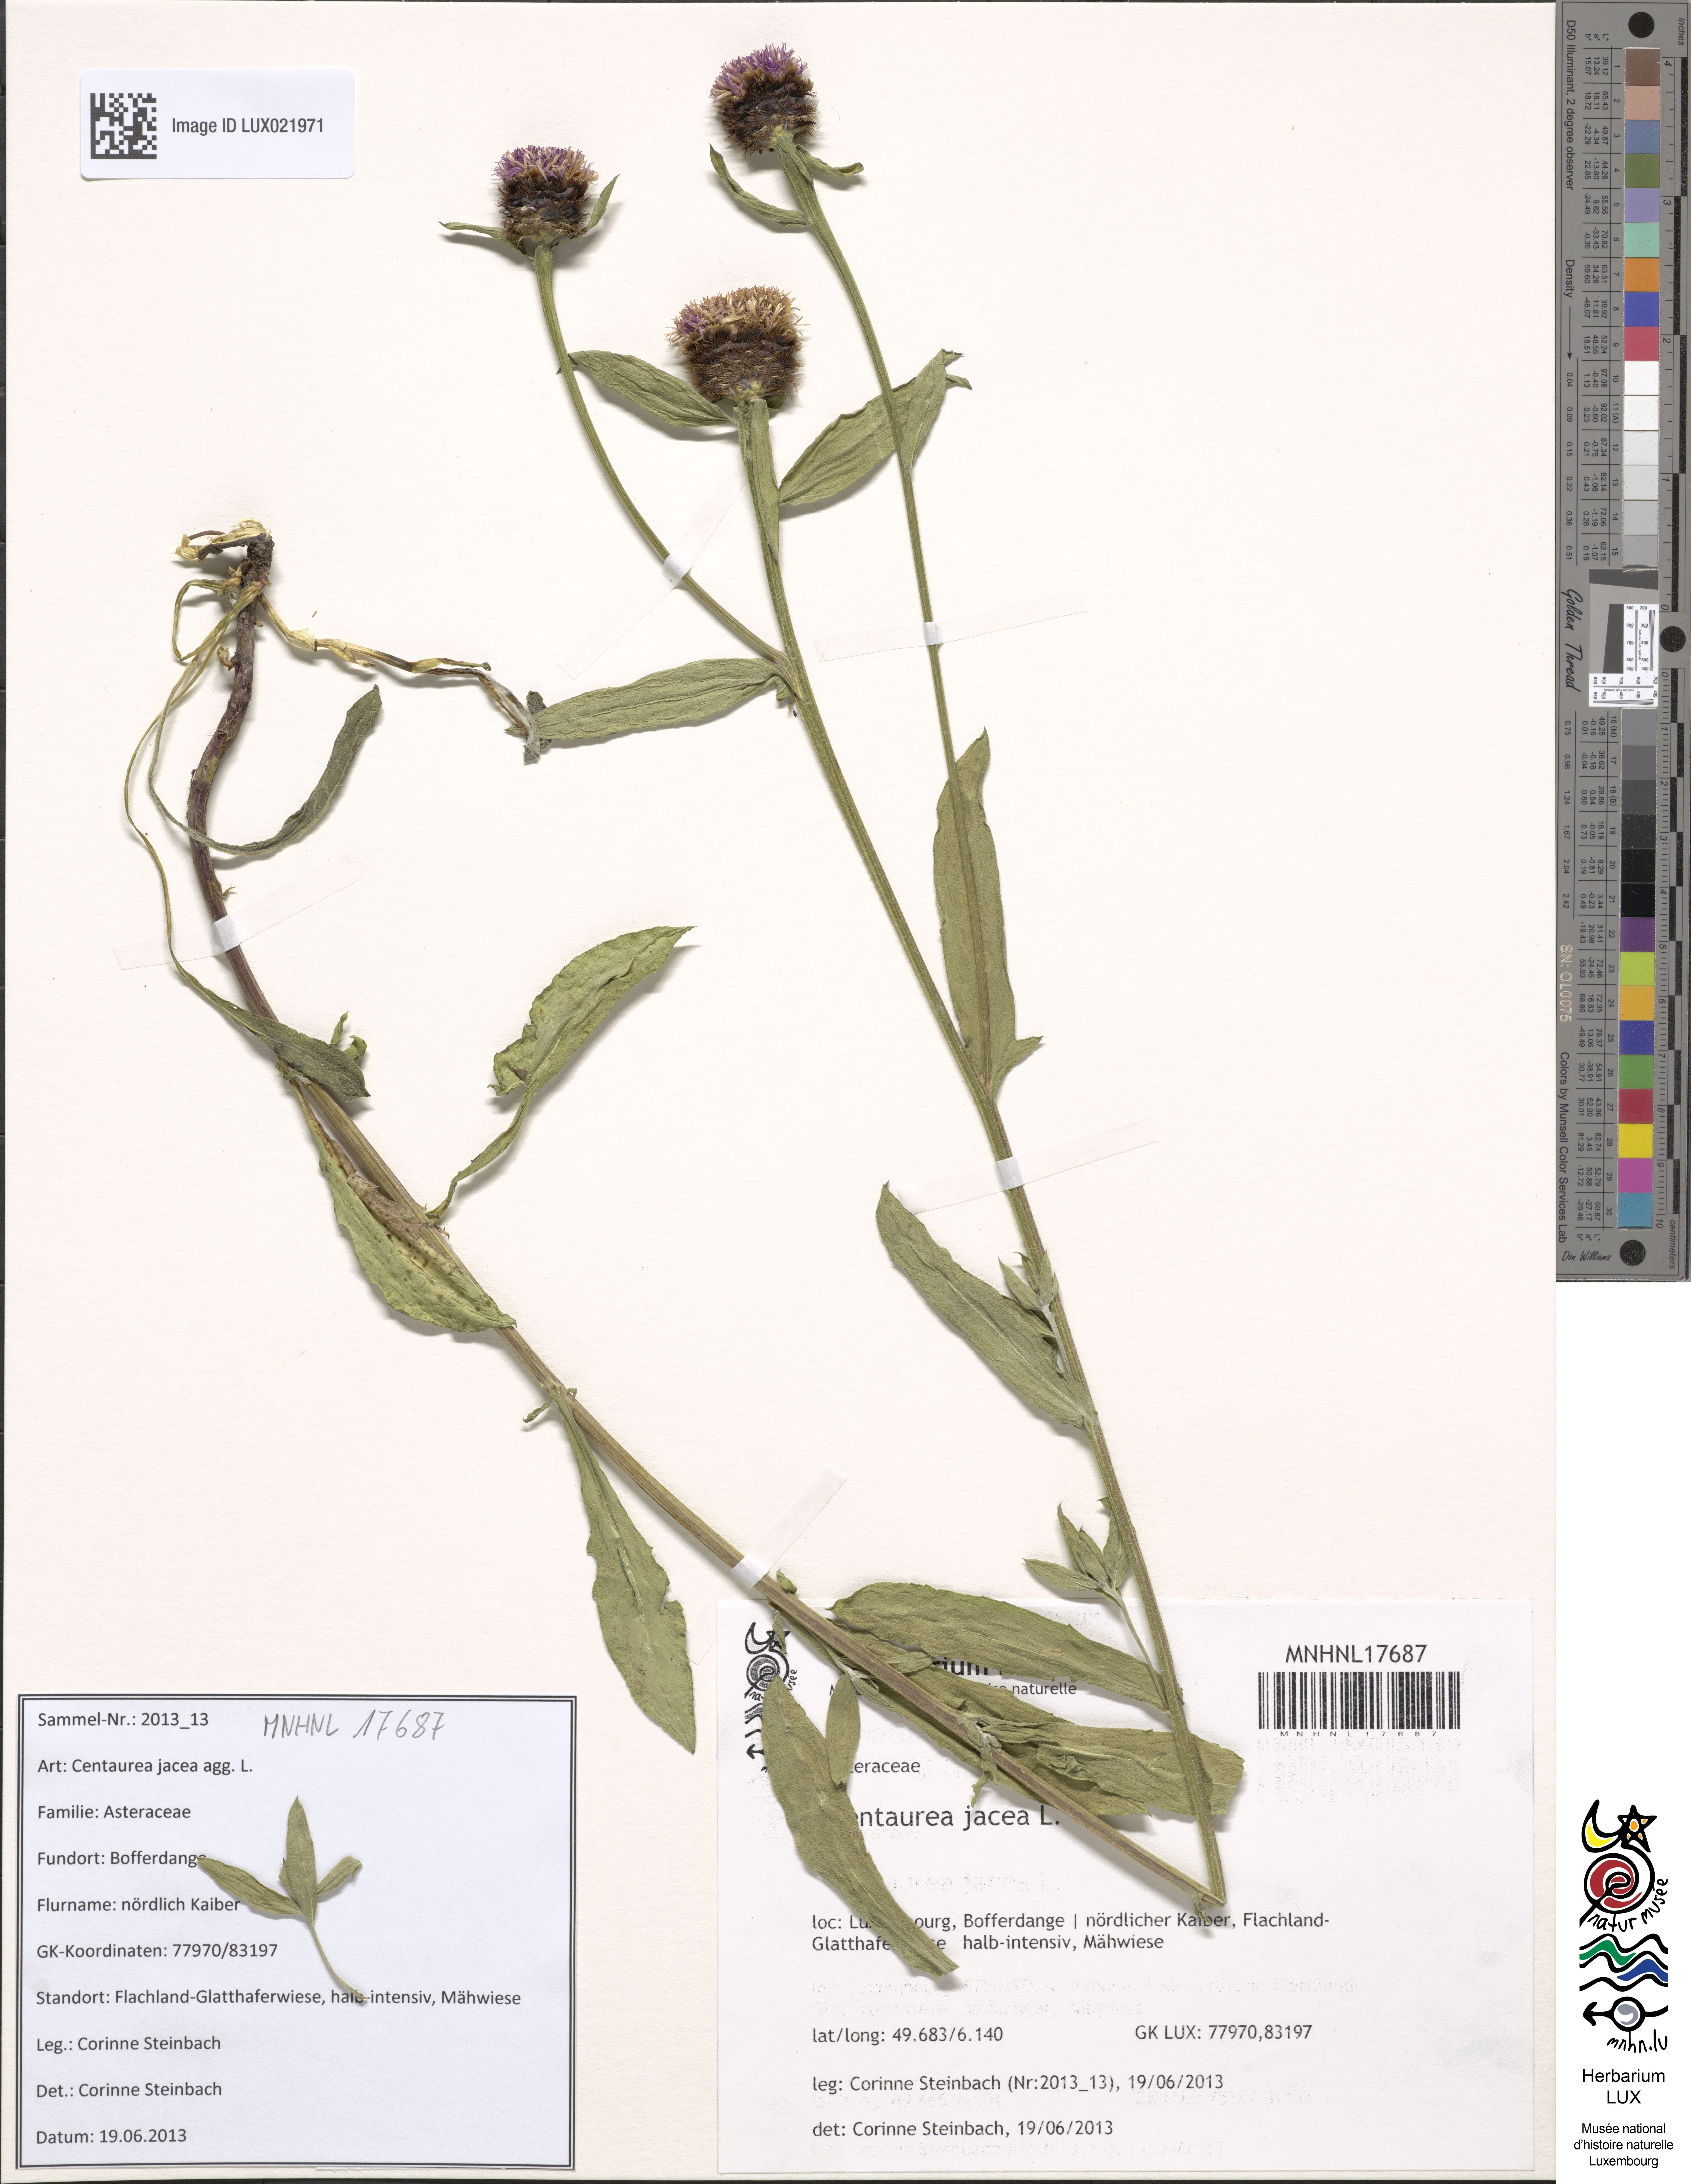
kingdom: Plantae
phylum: Tracheophyta
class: Magnoliopsida
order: Asterales
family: Asteraceae
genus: Centaurea
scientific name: Centaurea jacea
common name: Brown knapweed
